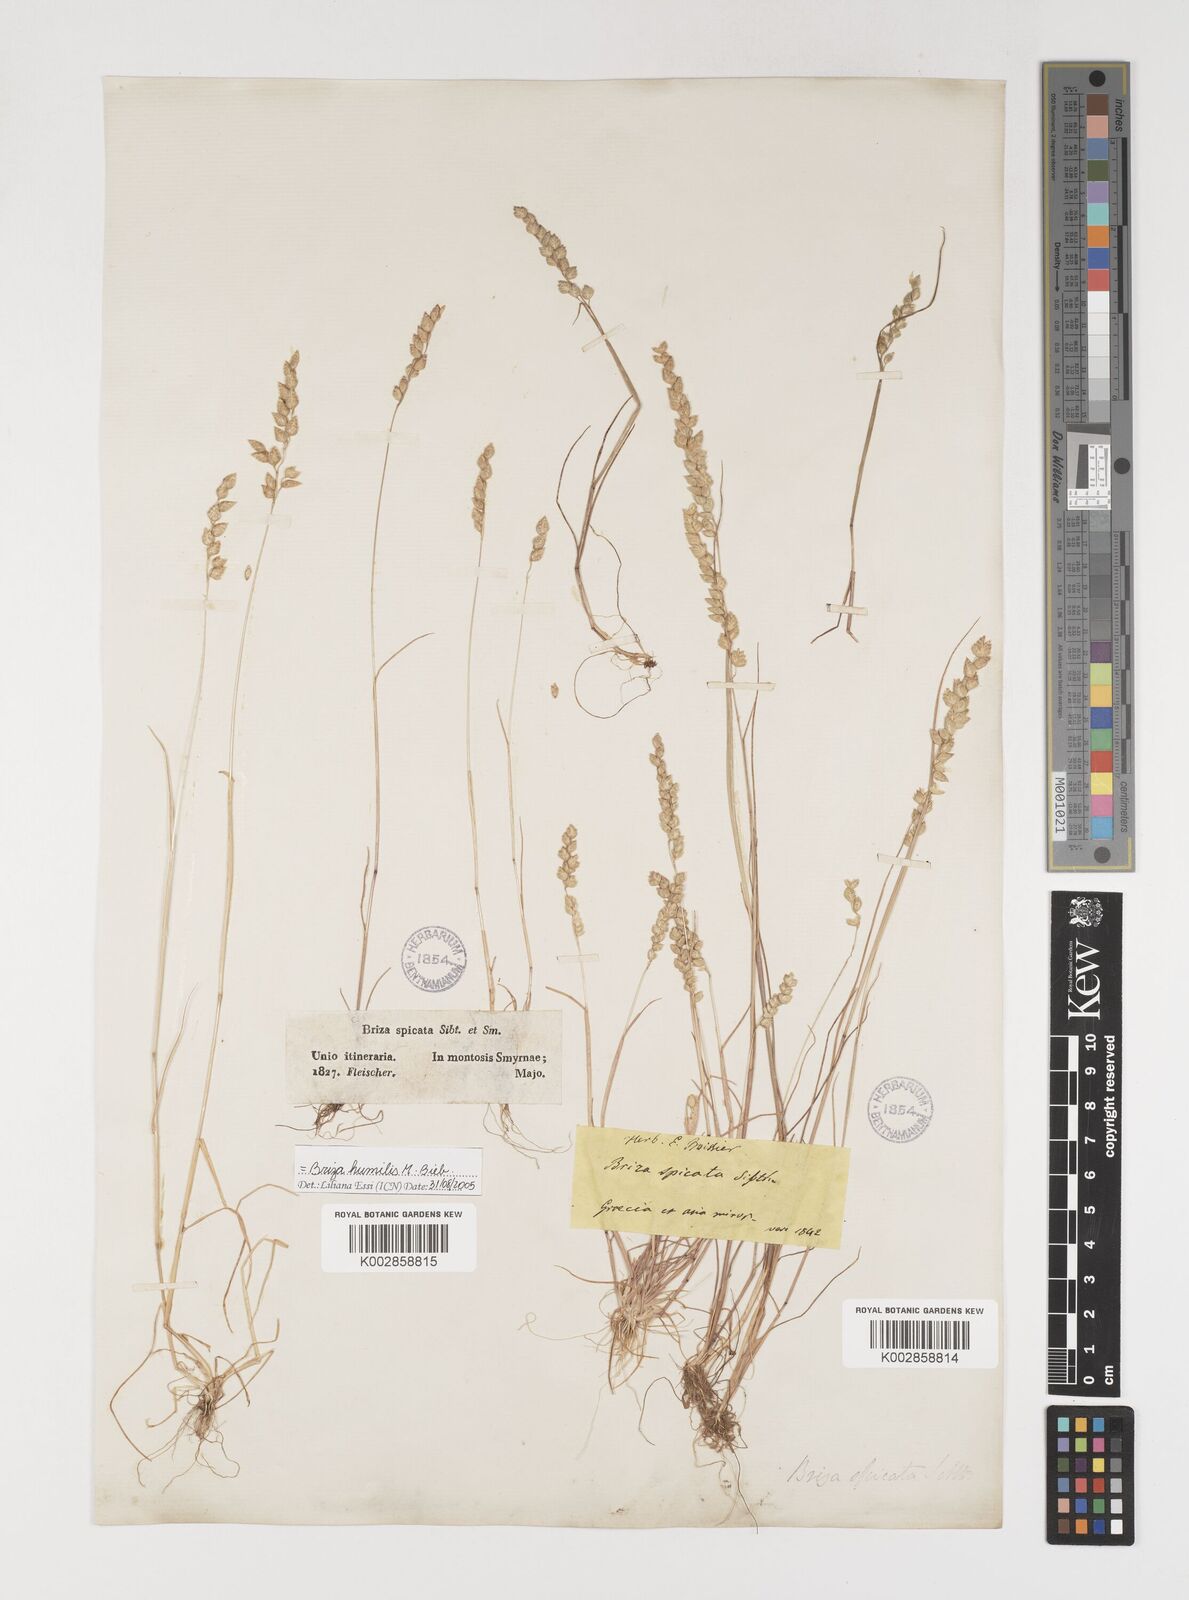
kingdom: Plantae
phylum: Tracheophyta
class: Liliopsida
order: Poales
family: Poaceae
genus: Briza
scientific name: Briza humilis
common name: Spiked quaking grass
